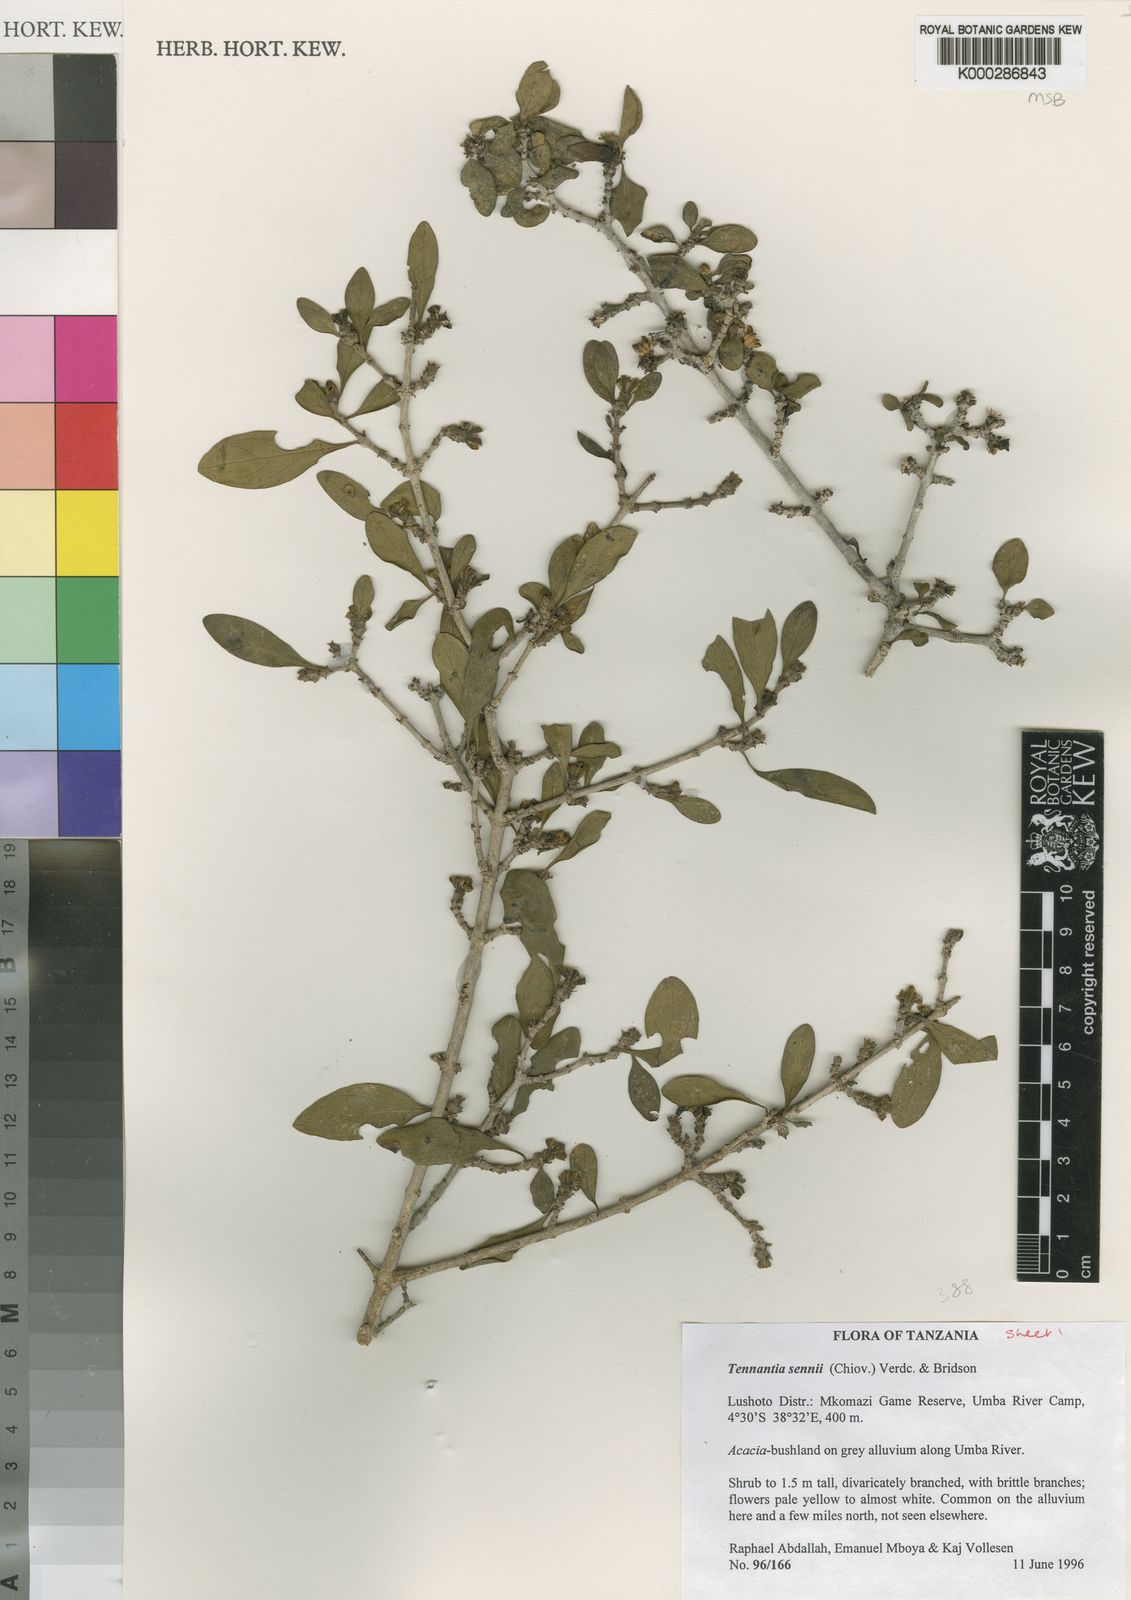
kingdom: Plantae
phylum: Tracheophyta
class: Magnoliopsida
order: Gentianales
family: Rubiaceae
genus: Tennantia
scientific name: Tennantia sennii
